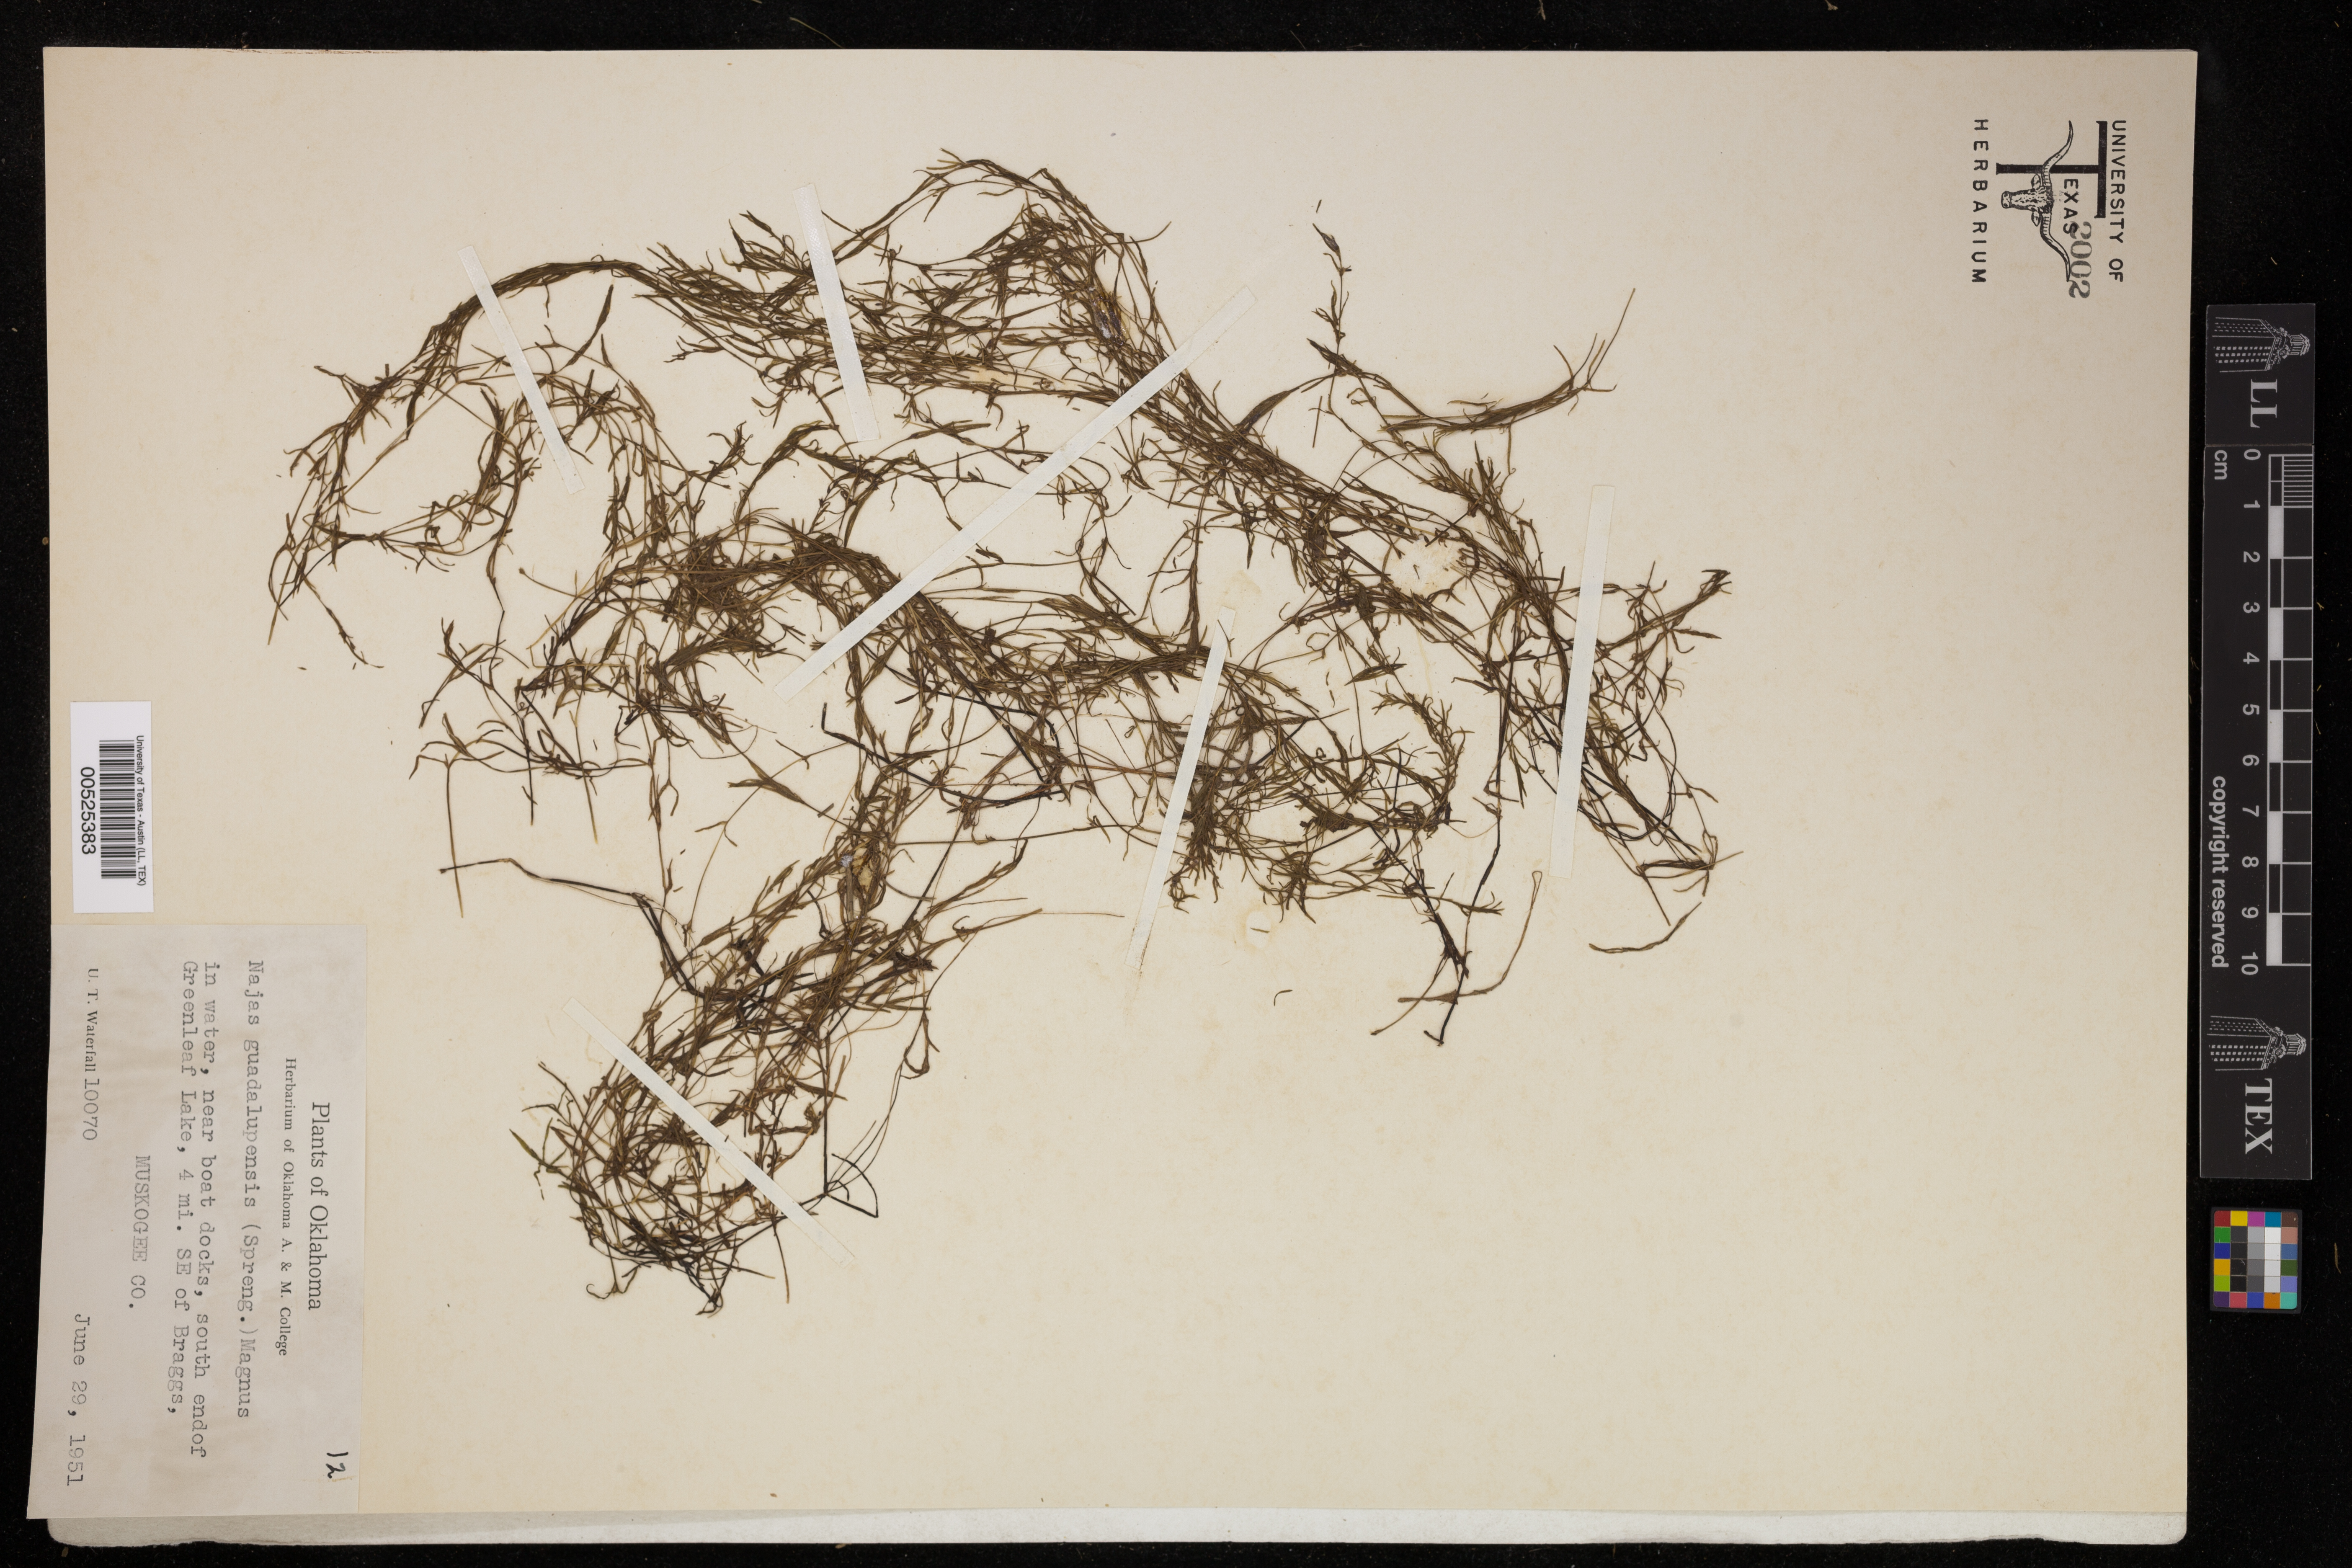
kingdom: Plantae
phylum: Tracheophyta
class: Liliopsida
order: Alismatales
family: Hydrocharitaceae
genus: Najas
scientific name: Najas guadalupensis
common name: Southern naiad
